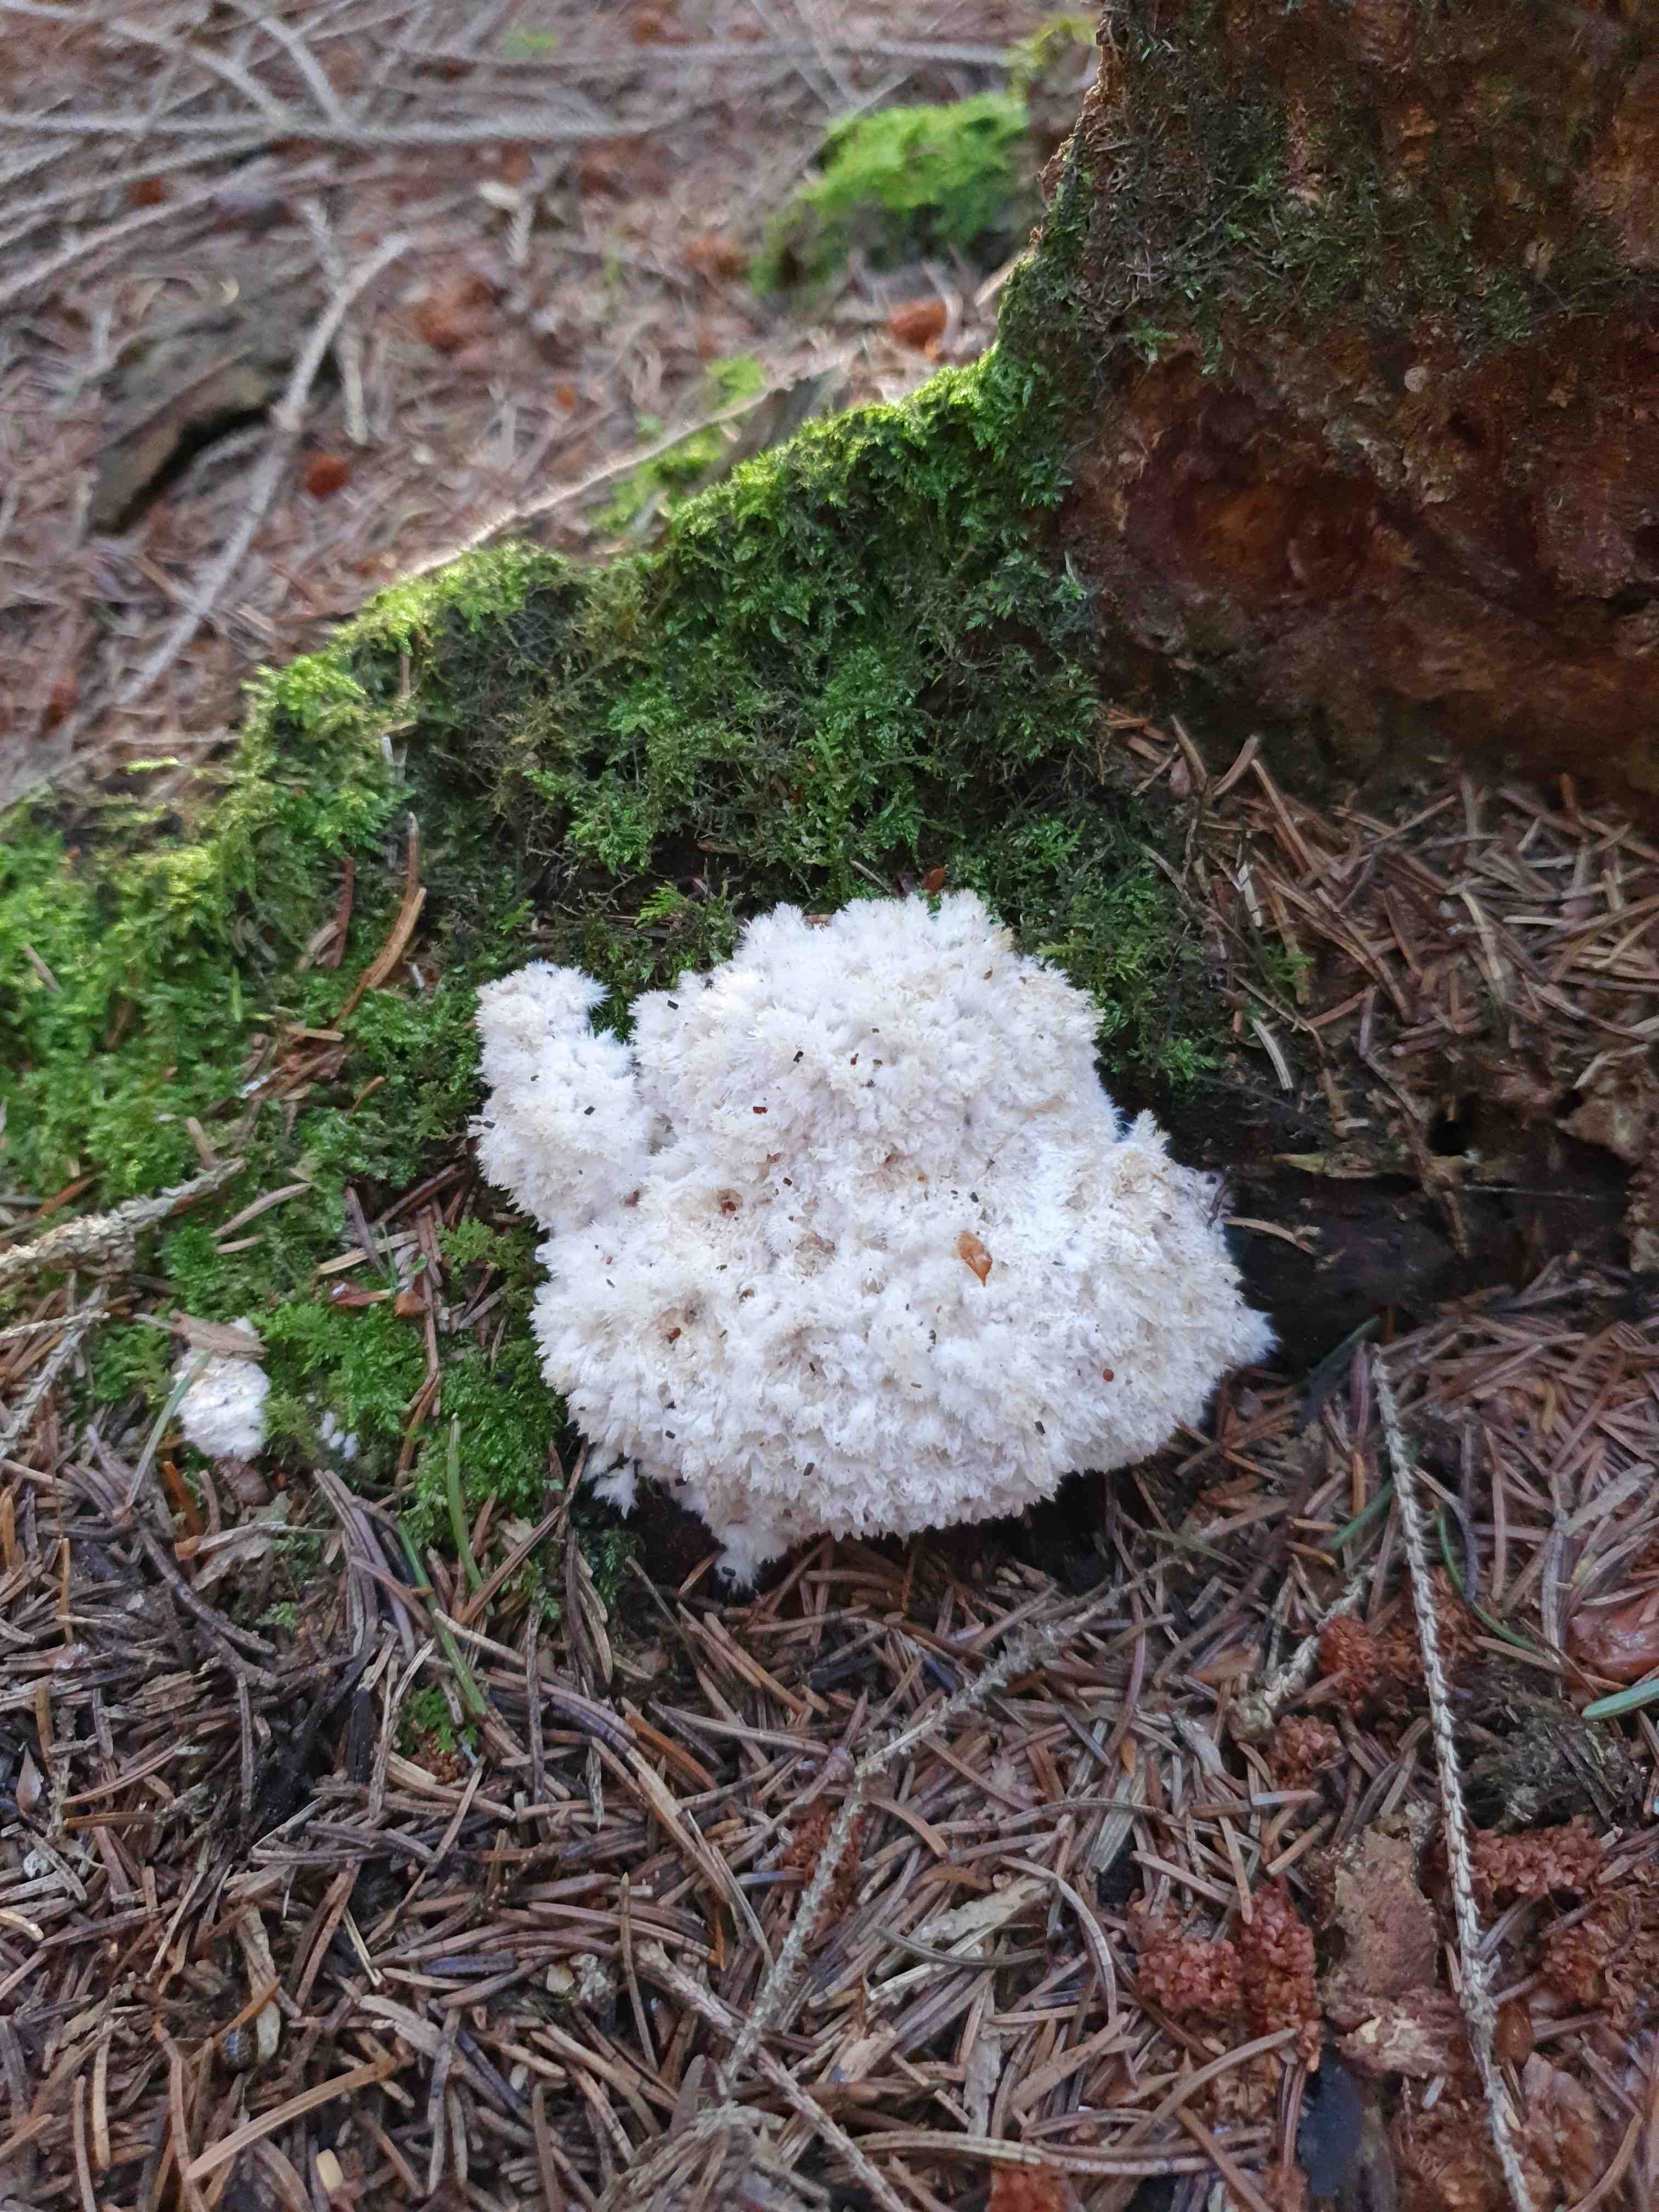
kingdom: Fungi
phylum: Basidiomycota
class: Agaricomycetes
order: Polyporales
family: Dacryobolaceae
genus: Postia
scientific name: Postia ptychogaster
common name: støvende kødporesvamp
